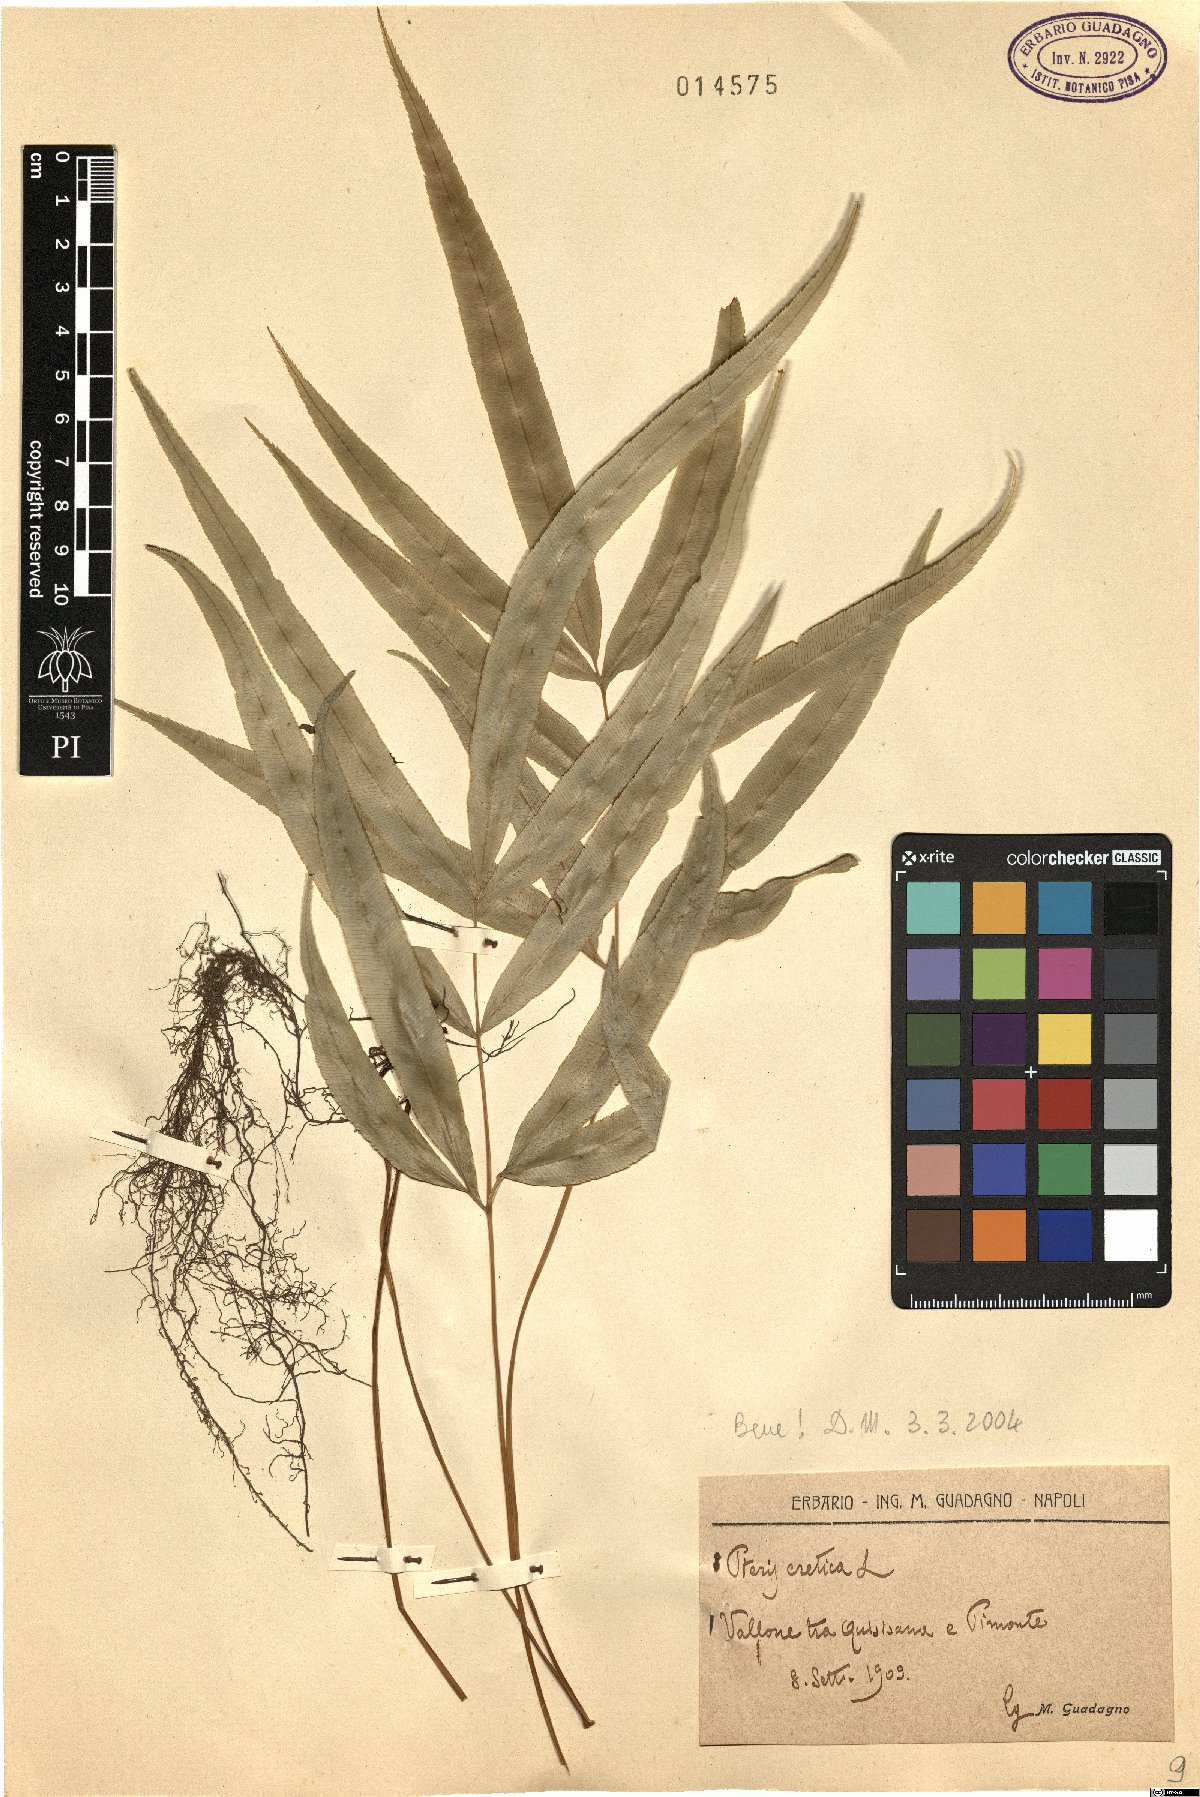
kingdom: Plantae
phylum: Tracheophyta
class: Polypodiopsida
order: Polypodiales
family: Pteridaceae
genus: Pteris
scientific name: Pteris cretica
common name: Ribbon fern
